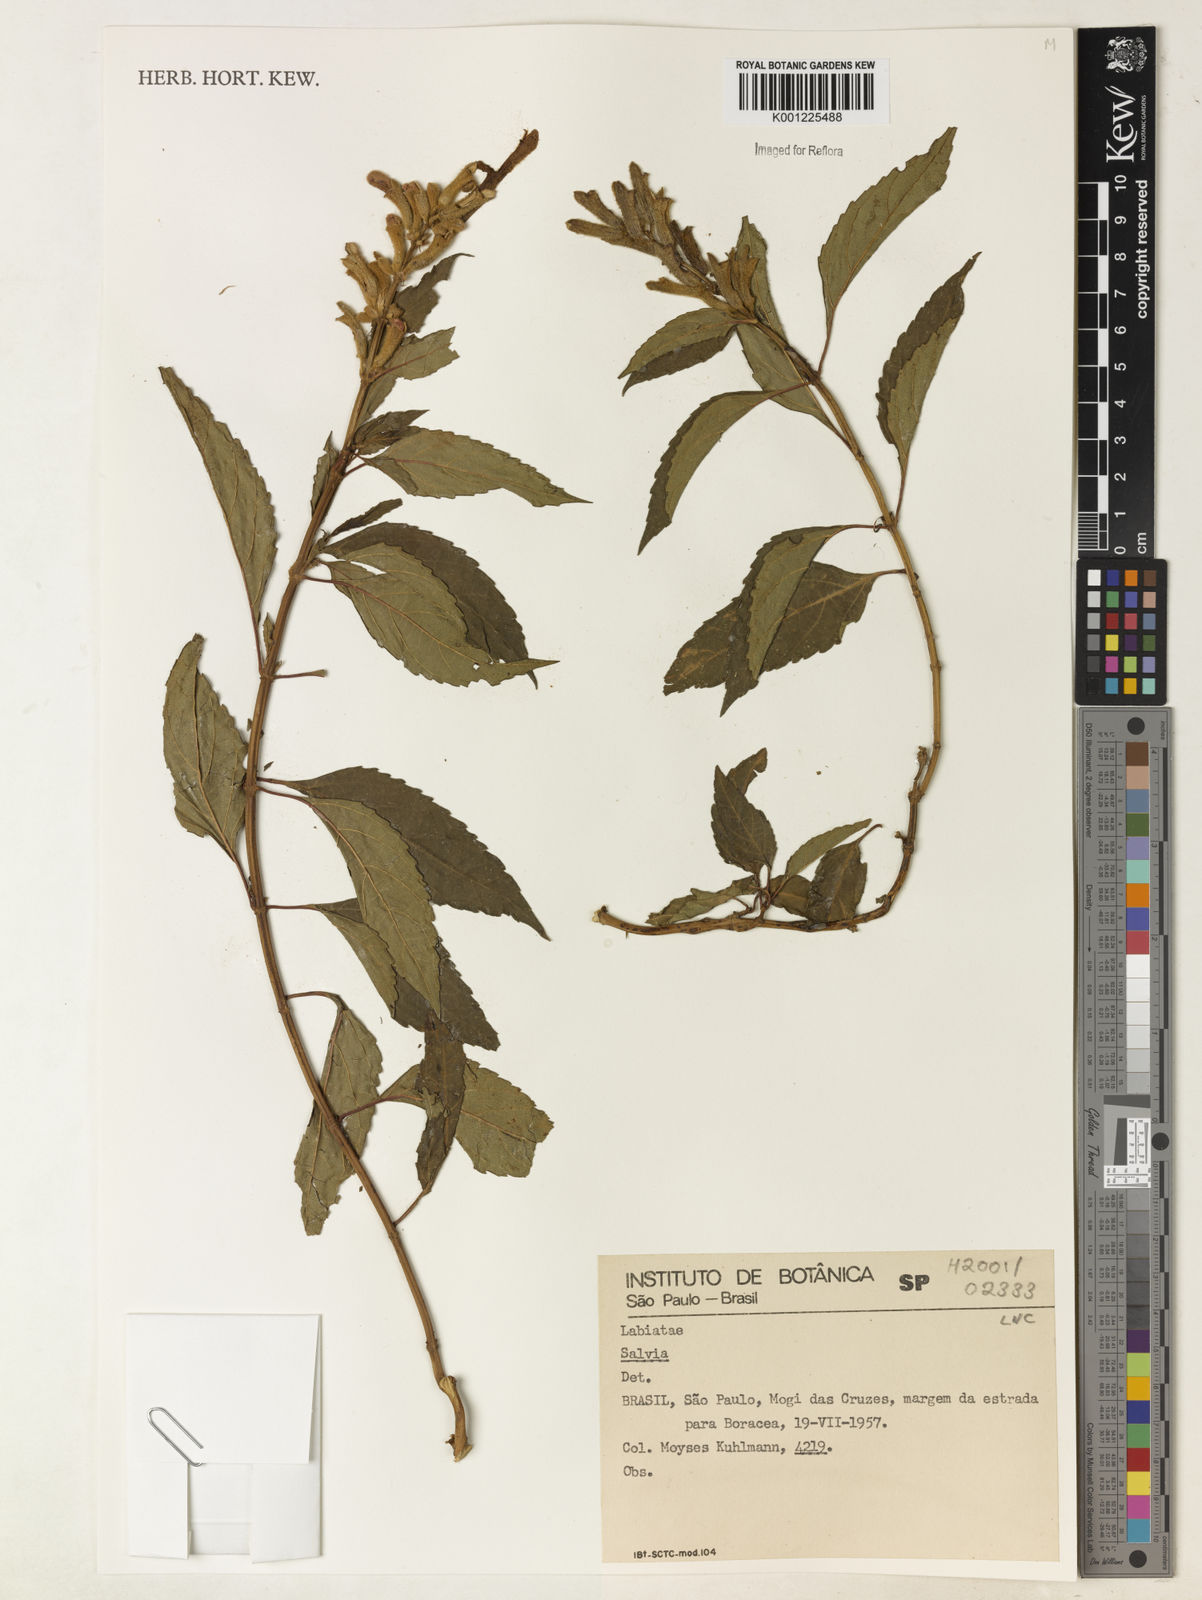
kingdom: Plantae
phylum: Tracheophyta
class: Magnoliopsida
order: Lamiales
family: Lamiaceae
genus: Salvia
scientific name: Salvia
